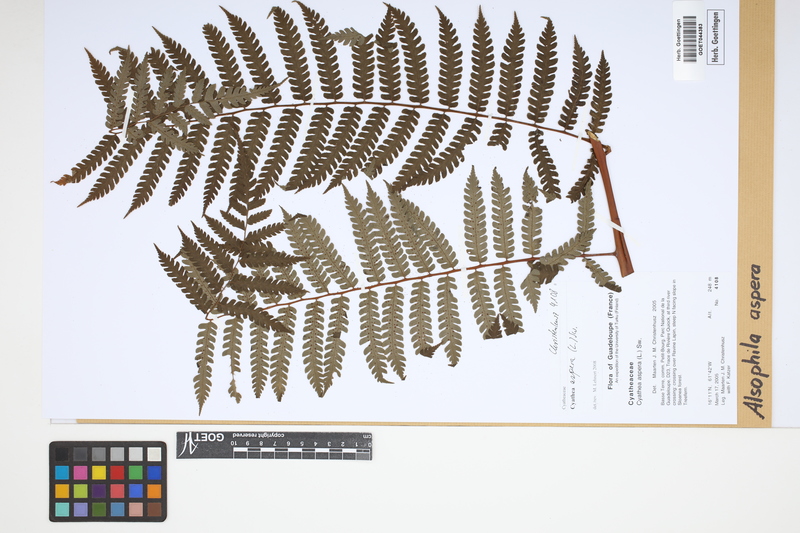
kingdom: Plantae
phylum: Tracheophyta
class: Polypodiopsida
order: Cyatheales
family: Cyatheaceae
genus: Cyathea
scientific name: Cyathea aspera
